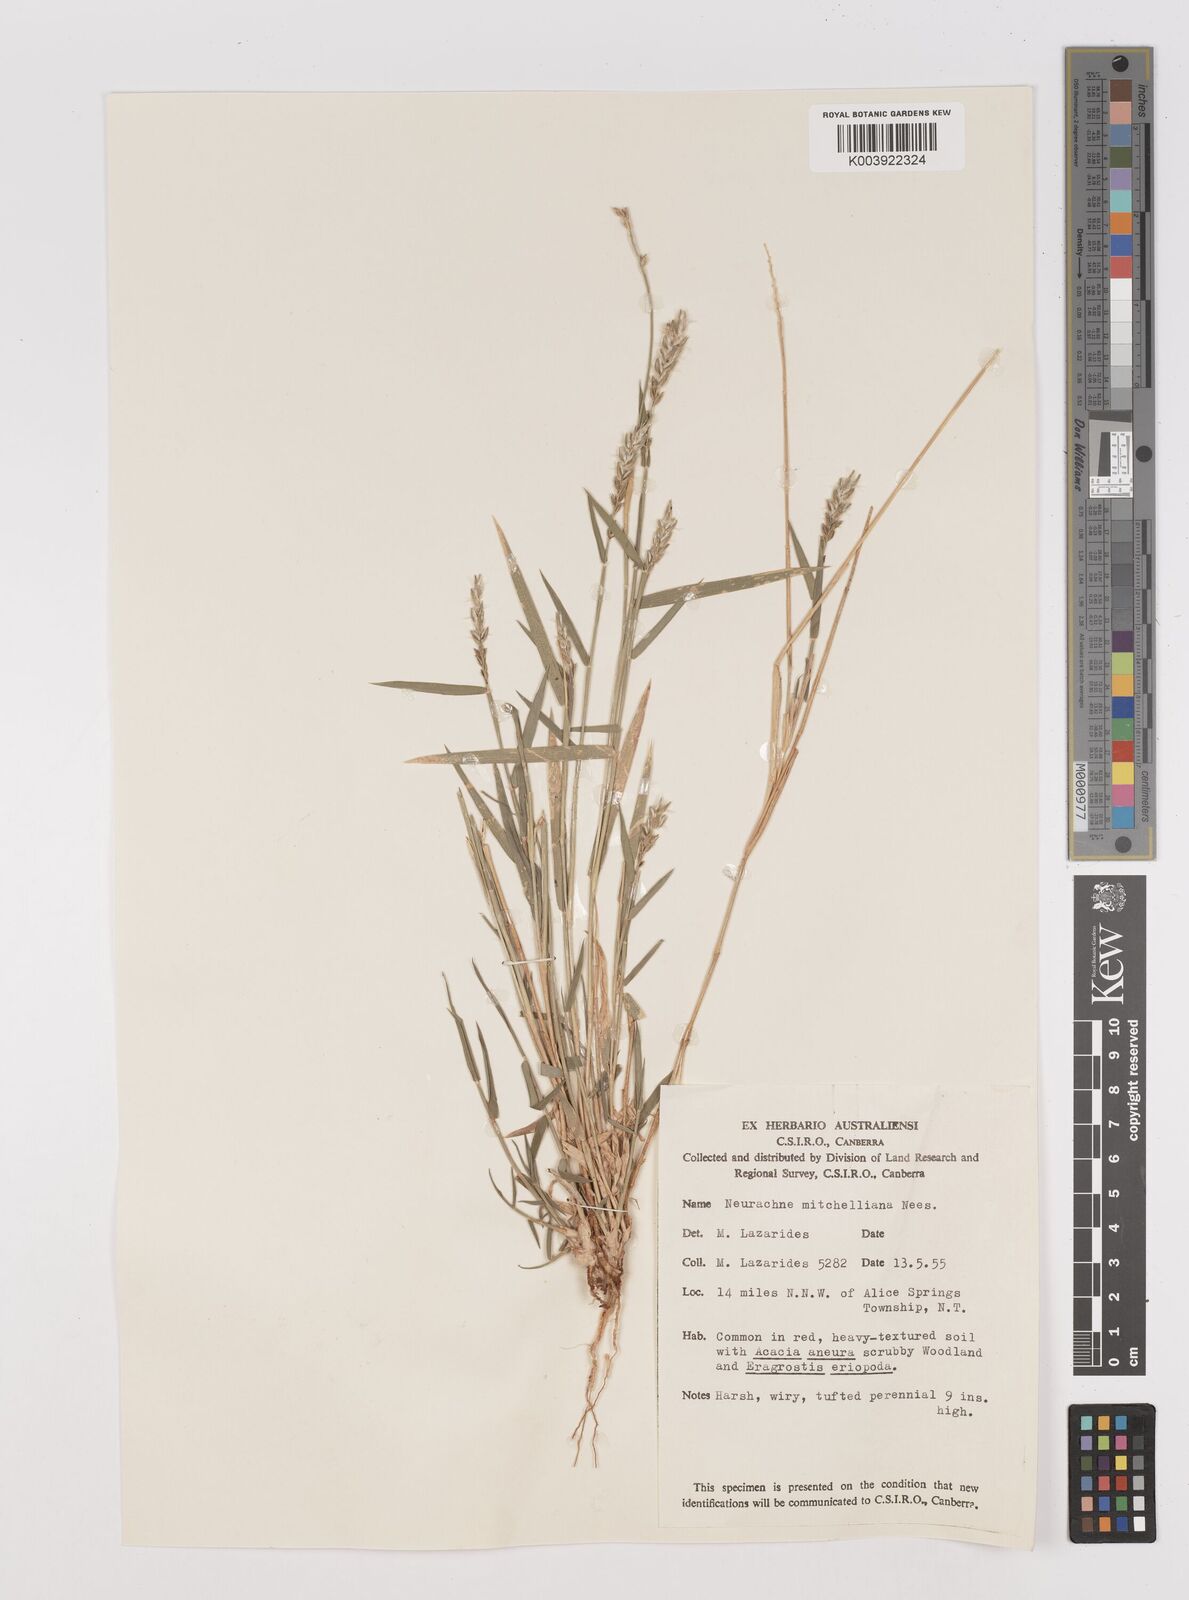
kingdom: Plantae
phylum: Tracheophyta
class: Liliopsida
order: Poales
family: Poaceae
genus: Thyridolepis
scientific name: Thyridolepis mitchelliana
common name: Rock tassel grass
